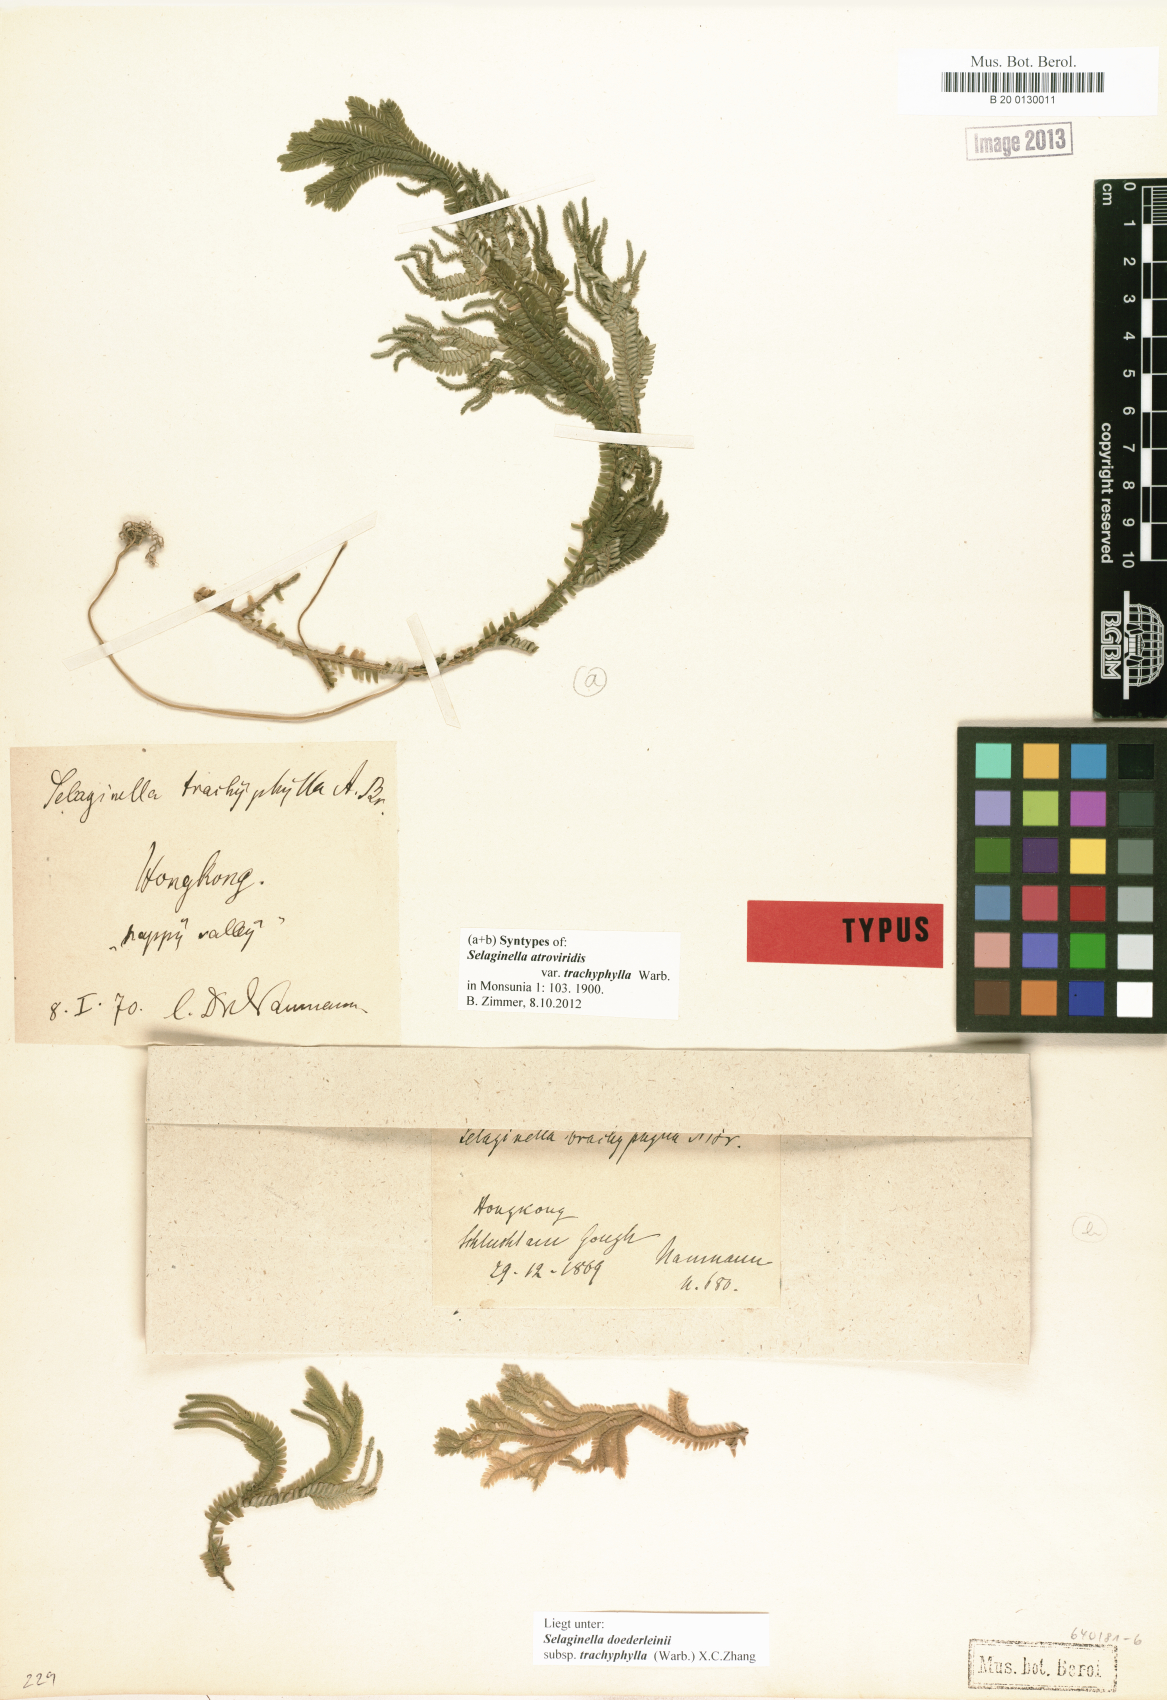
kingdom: Plantae
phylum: Tracheophyta
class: Lycopodiopsida
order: Selaginellales
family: Selaginellaceae
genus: Selaginella
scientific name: Selaginella trachyphylla
